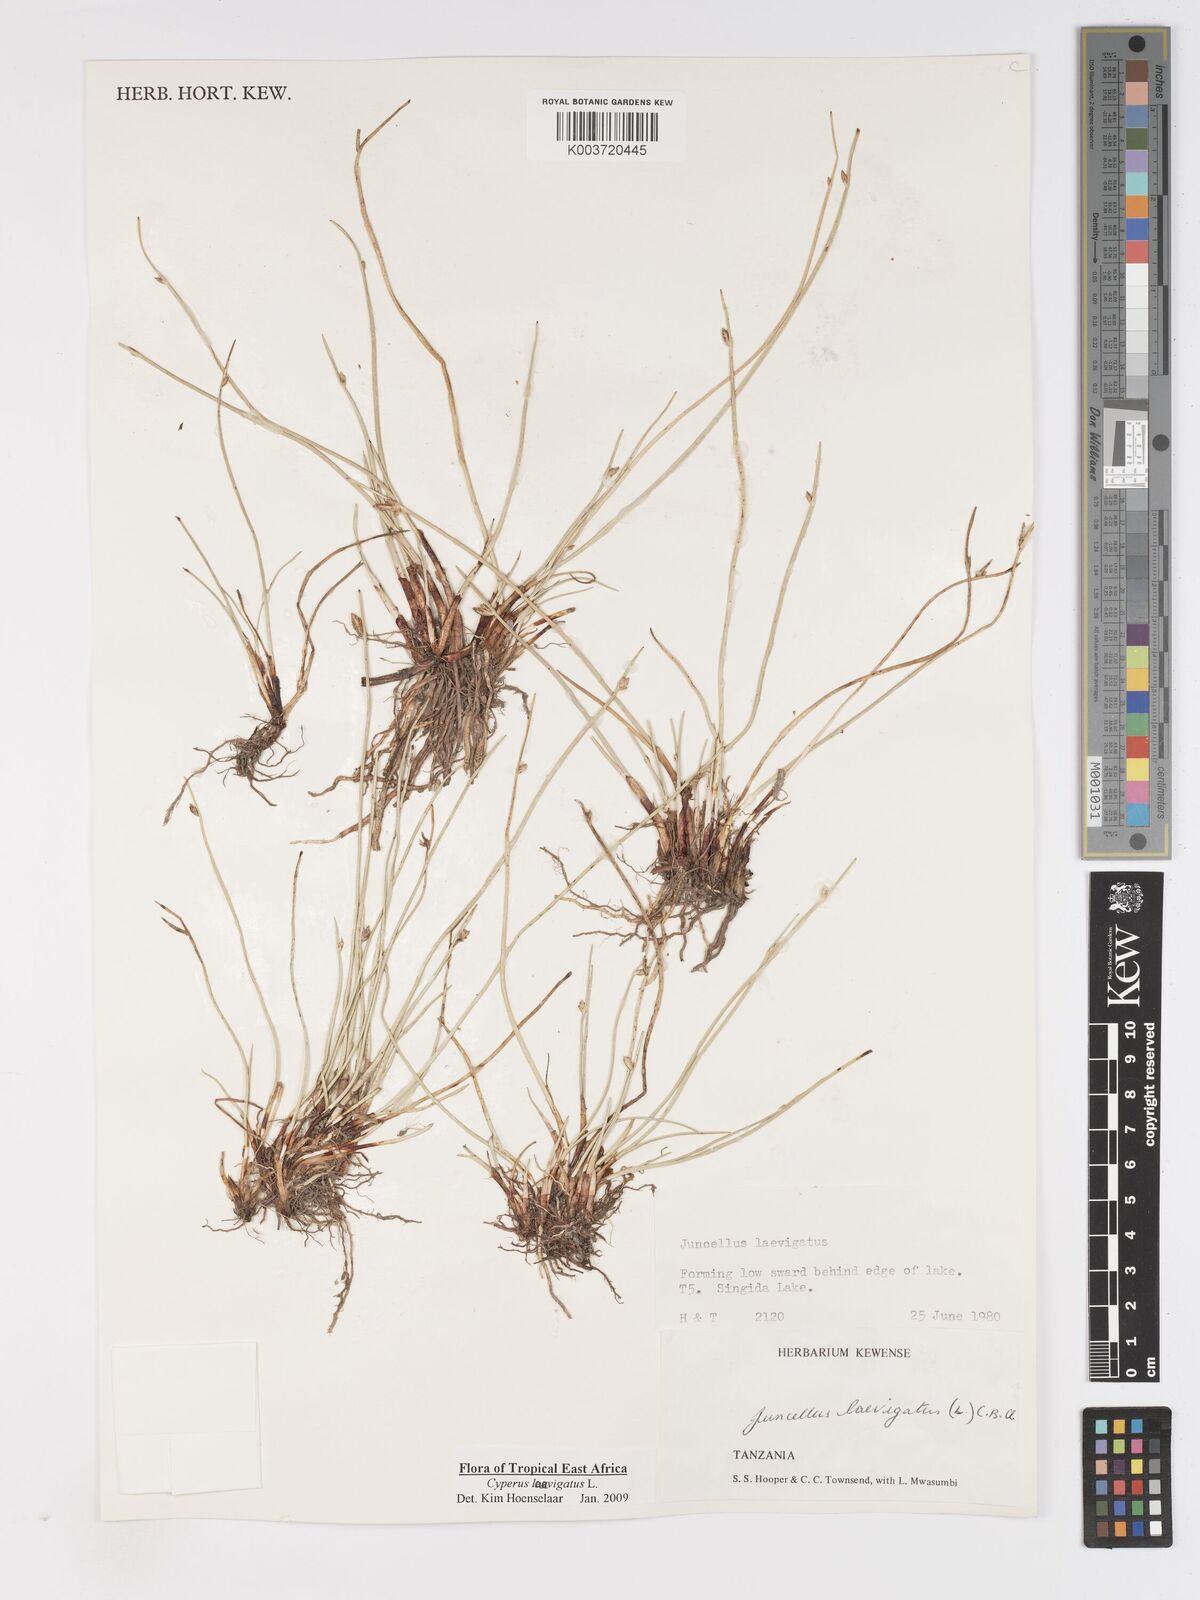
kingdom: Plantae
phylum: Tracheophyta
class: Liliopsida
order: Poales
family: Cyperaceae
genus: Cyperus
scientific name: Cyperus laevigatus
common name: Smooth flat sedge
